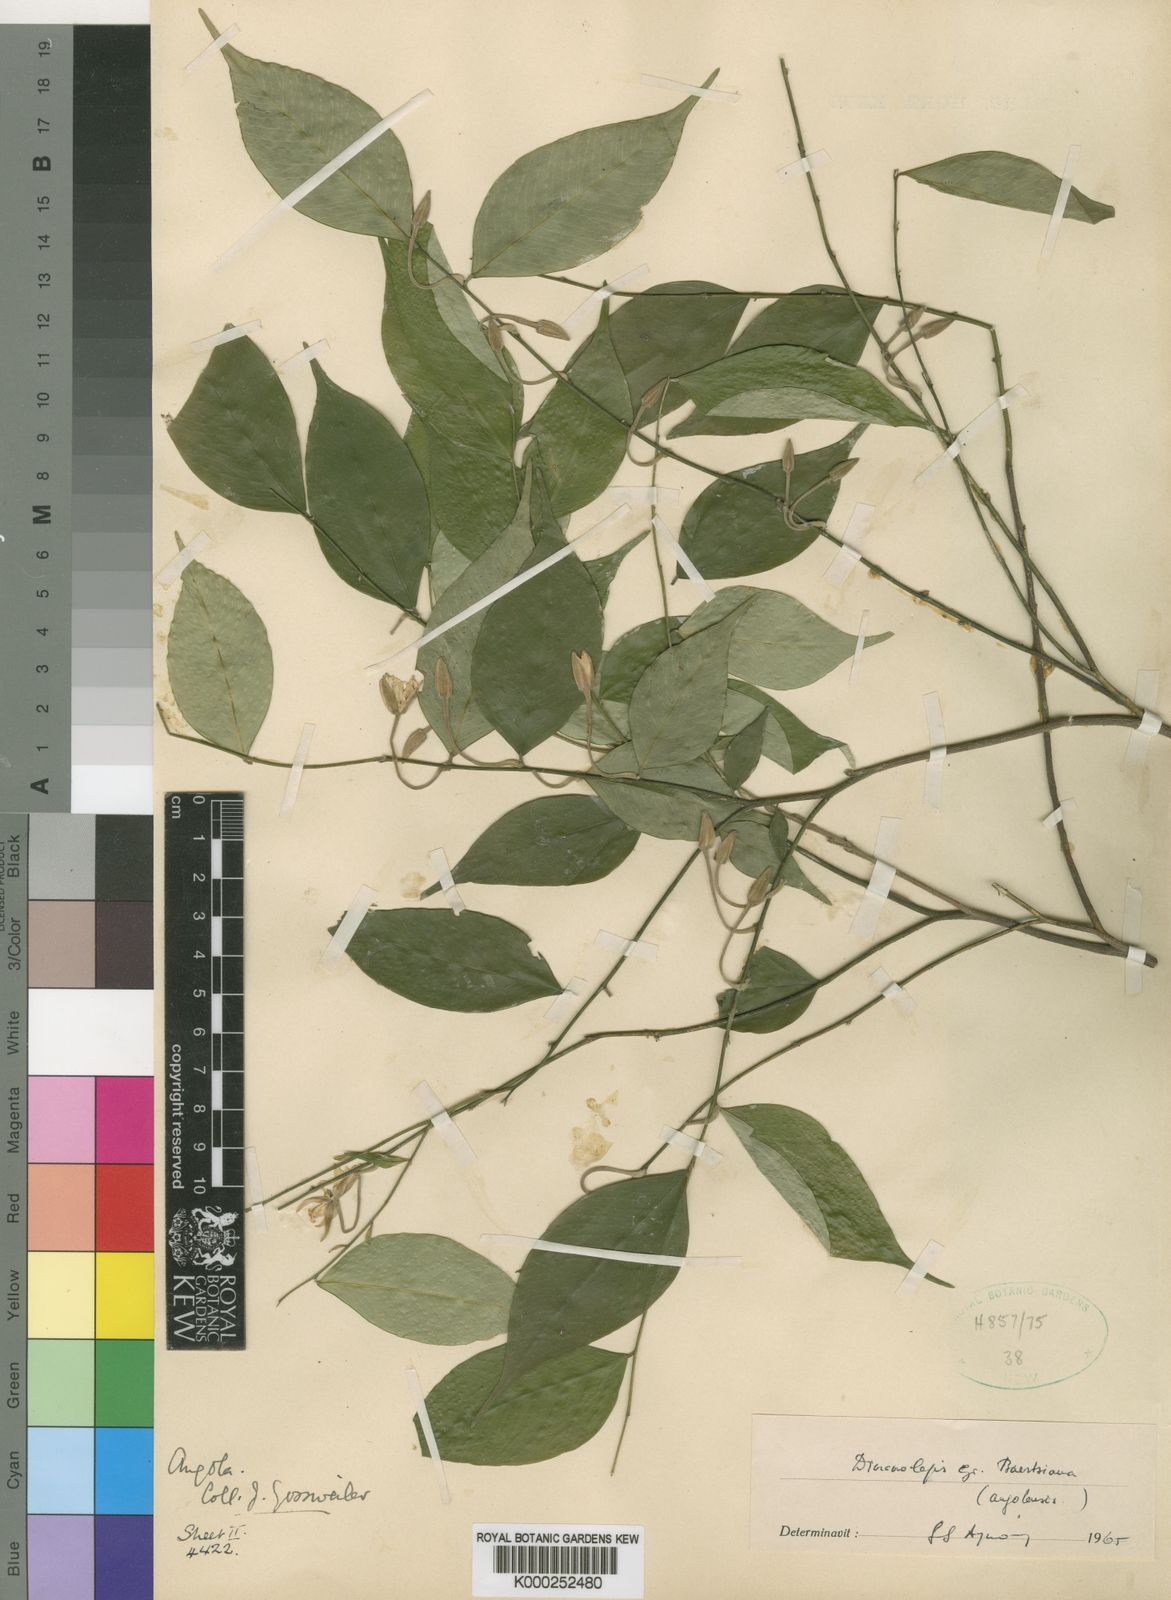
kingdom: Plantae
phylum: Tracheophyta
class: Magnoliopsida
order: Malvales
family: Thymelaeaceae
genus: Dicranolepis
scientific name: Dicranolepis baertsiana
